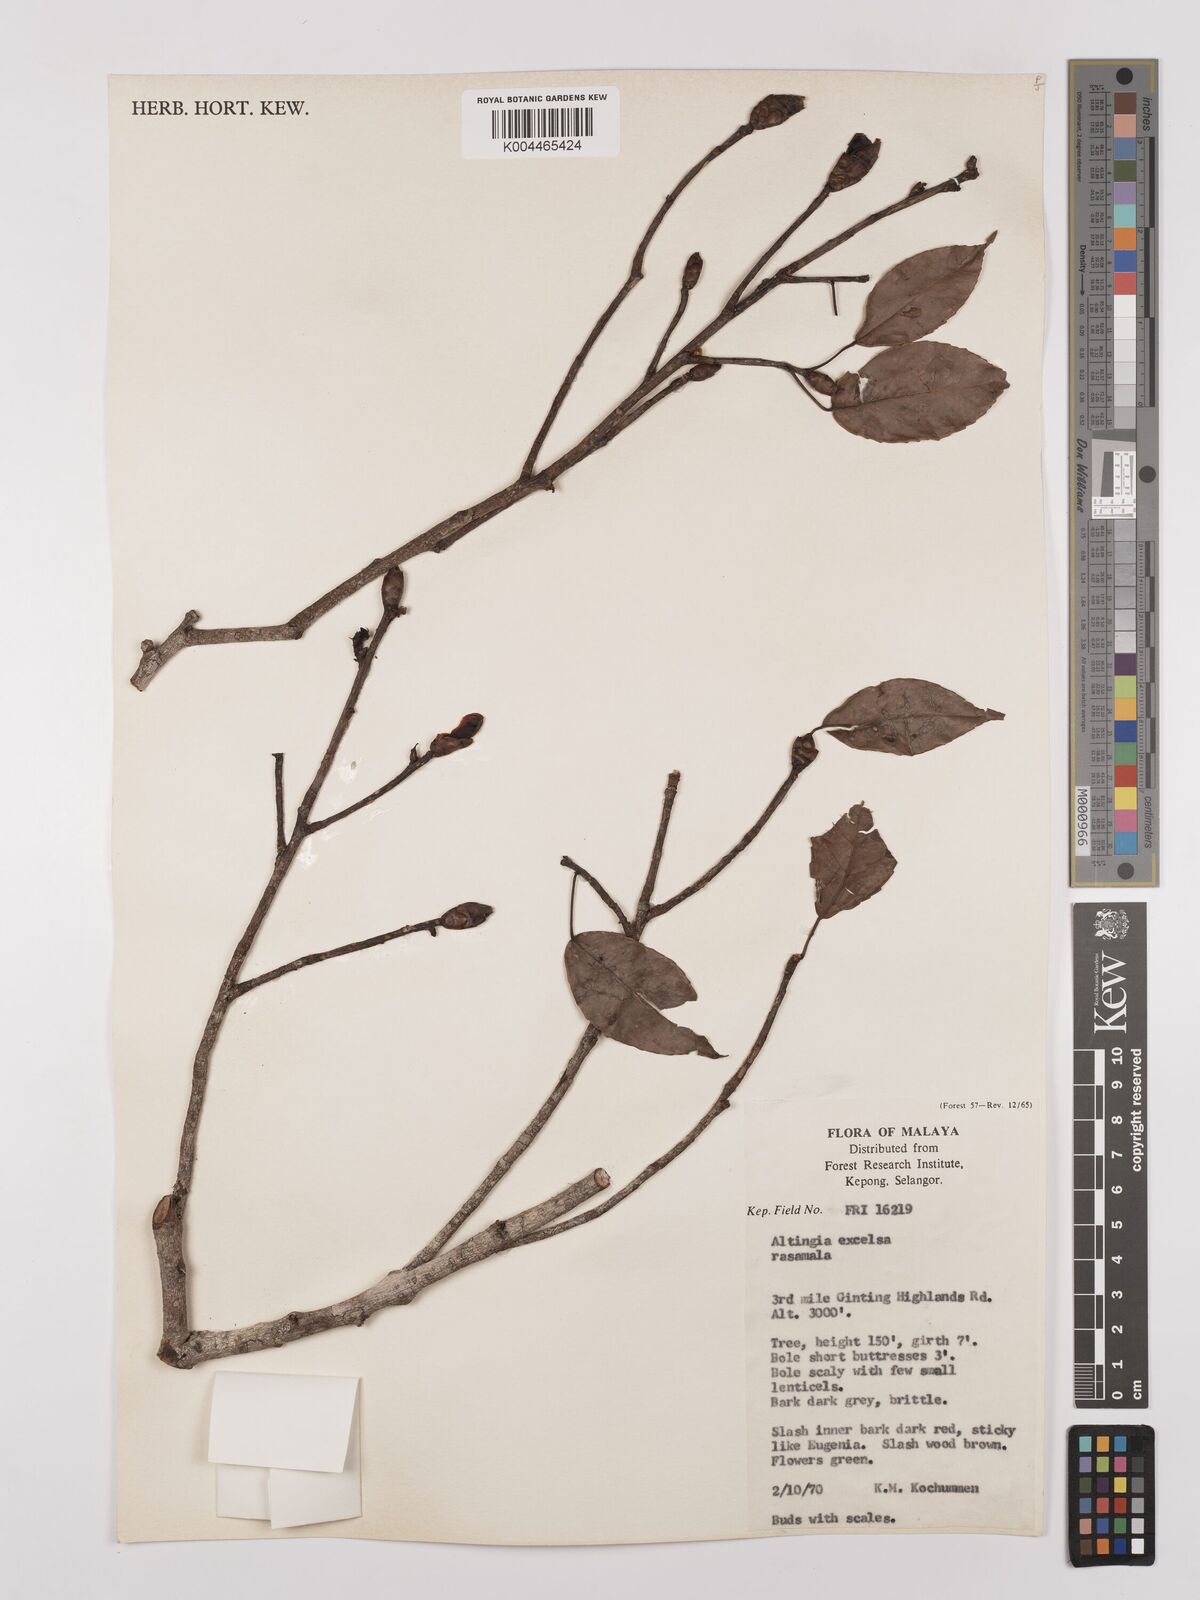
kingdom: Plantae
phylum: Tracheophyta
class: Magnoliopsida
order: Saxifragales
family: Altingiaceae
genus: Liquidambar
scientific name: Liquidambar excelsa
